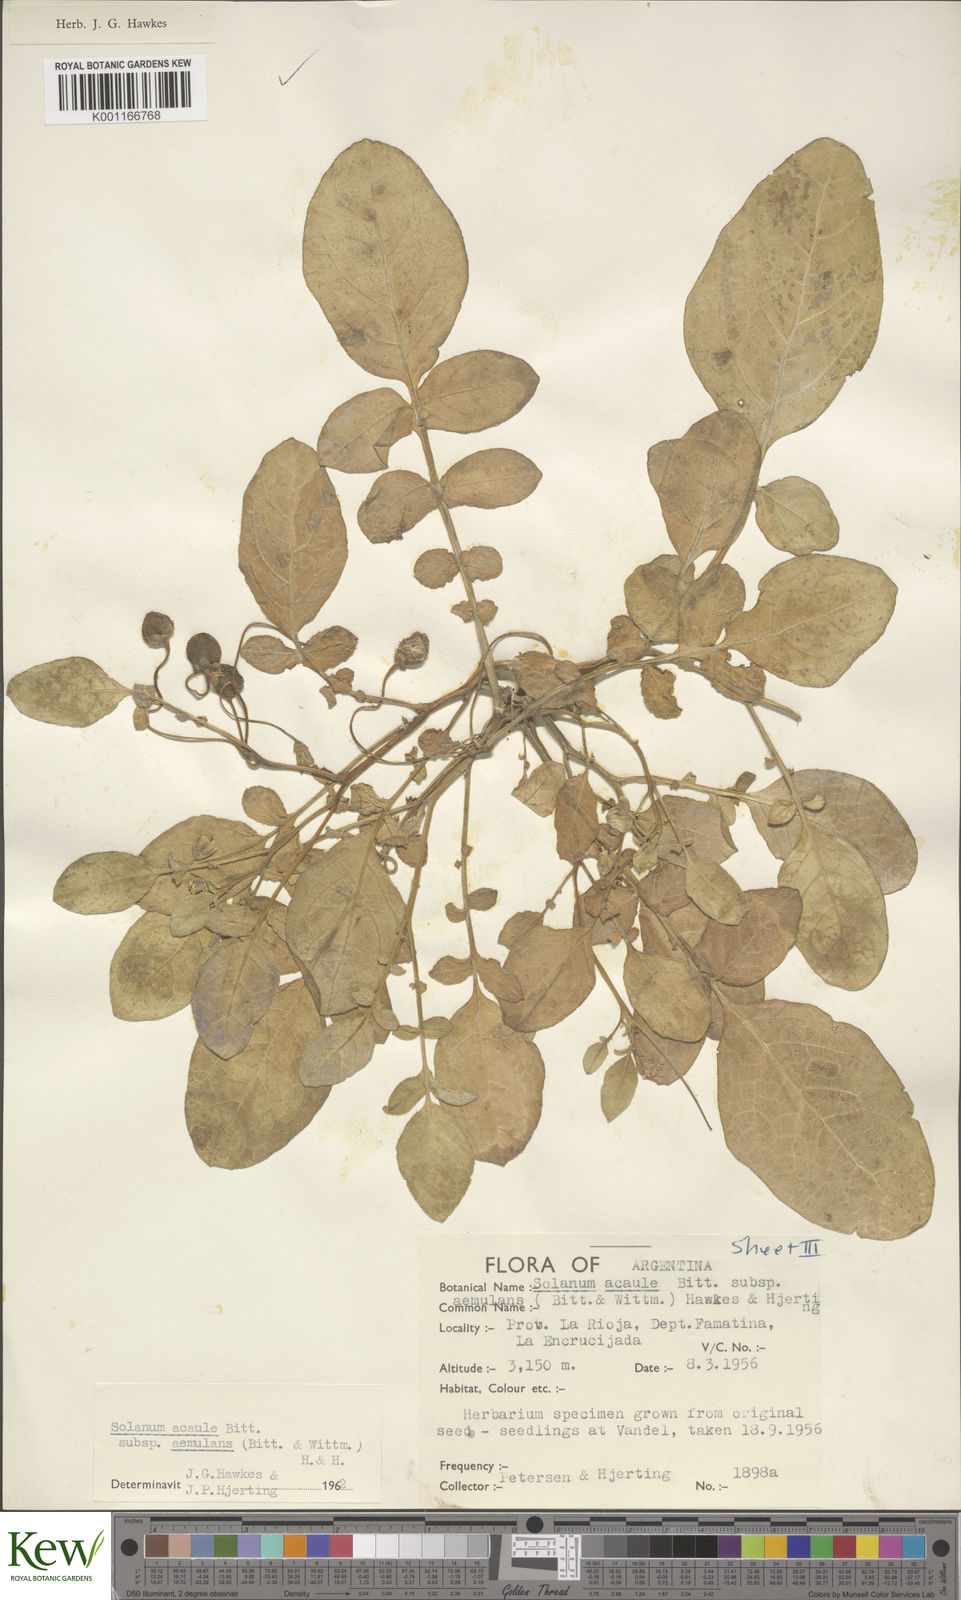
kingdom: Plantae
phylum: Tracheophyta
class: Magnoliopsida
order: Solanales
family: Solanaceae
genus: Solanum
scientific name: Solanum aemulans
